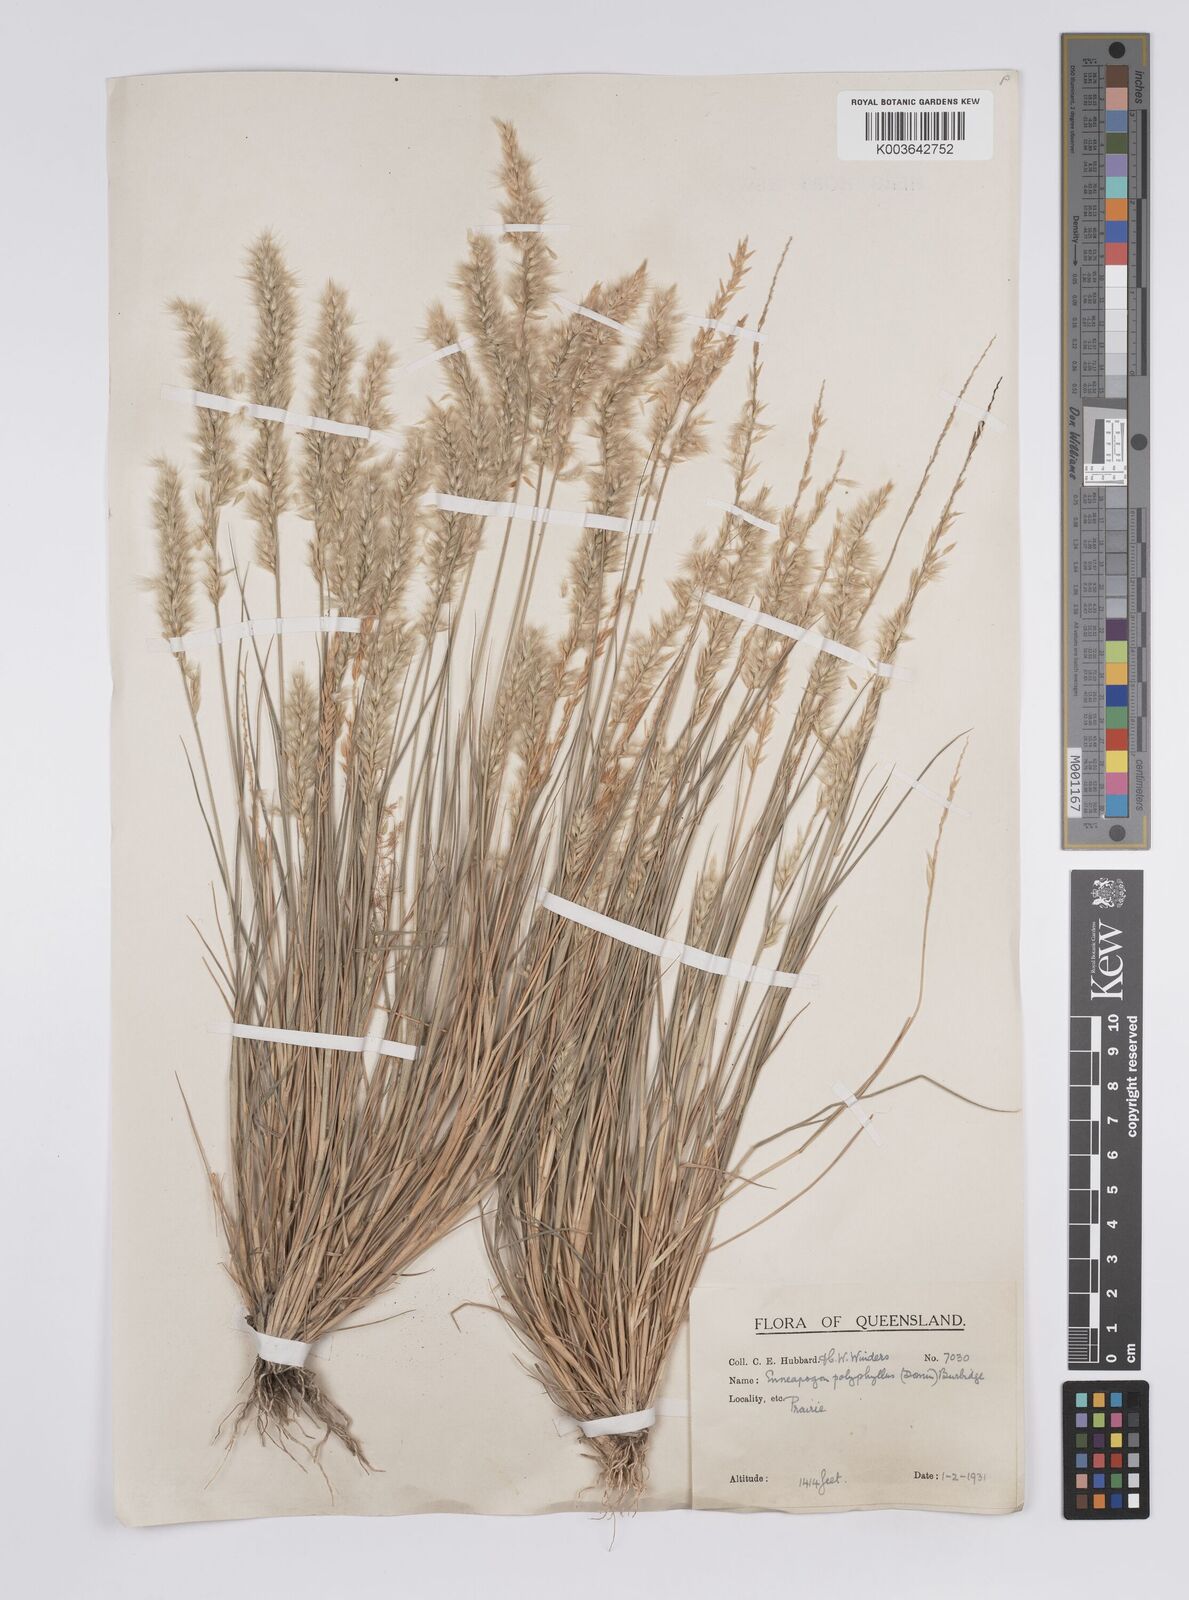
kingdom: Plantae
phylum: Tracheophyta
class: Liliopsida
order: Poales
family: Poaceae
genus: Enneapogon
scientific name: Enneapogon polyphyllus
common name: Leafy nineawn
